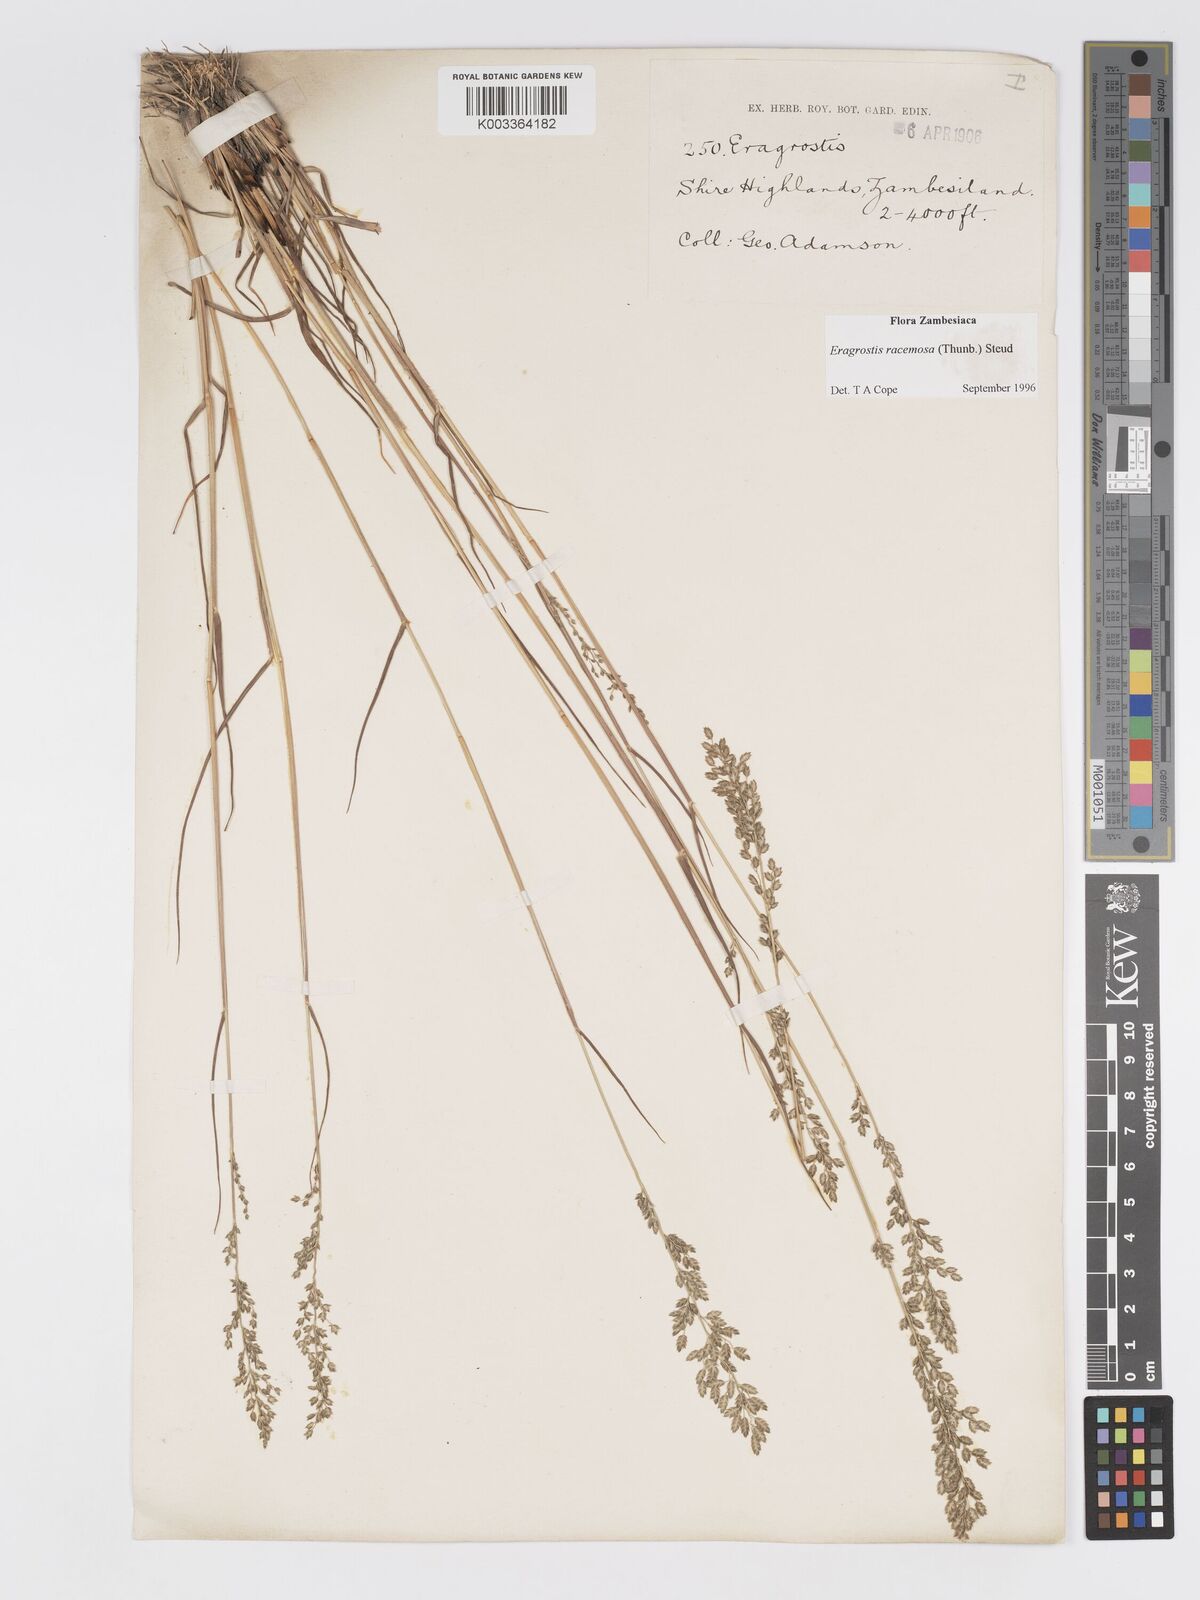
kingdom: Plantae
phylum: Tracheophyta
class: Liliopsida
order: Poales
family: Poaceae
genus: Eragrostis
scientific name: Eragrostis racemosa
